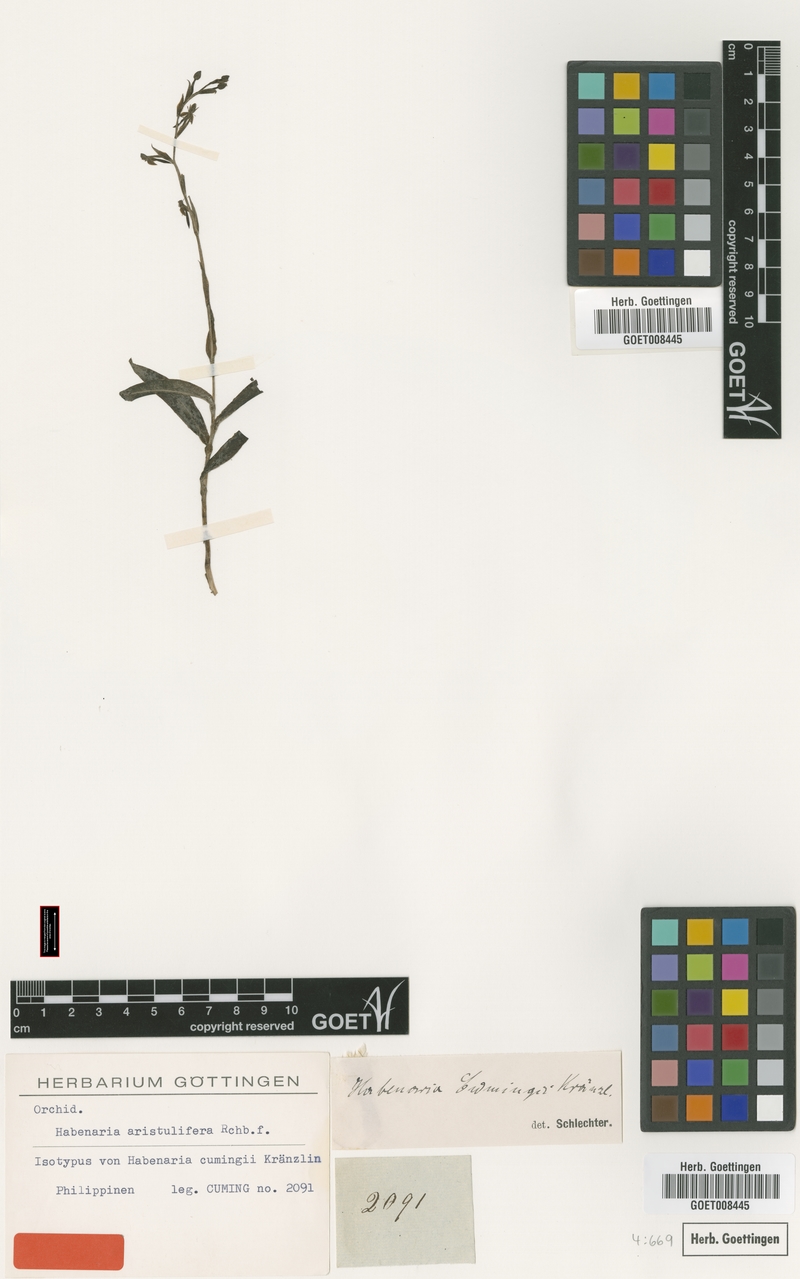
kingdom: Plantae
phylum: Tracheophyta
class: Liliopsida
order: Asparagales
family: Orchidaceae
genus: Habenaria
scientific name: Habenaria aristulifera
